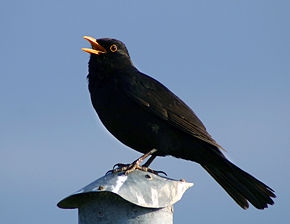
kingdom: Animalia
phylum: Chordata
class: Aves
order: Passeriformes
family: Turdidae
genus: Turdus
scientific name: Turdus merula
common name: Solsort
